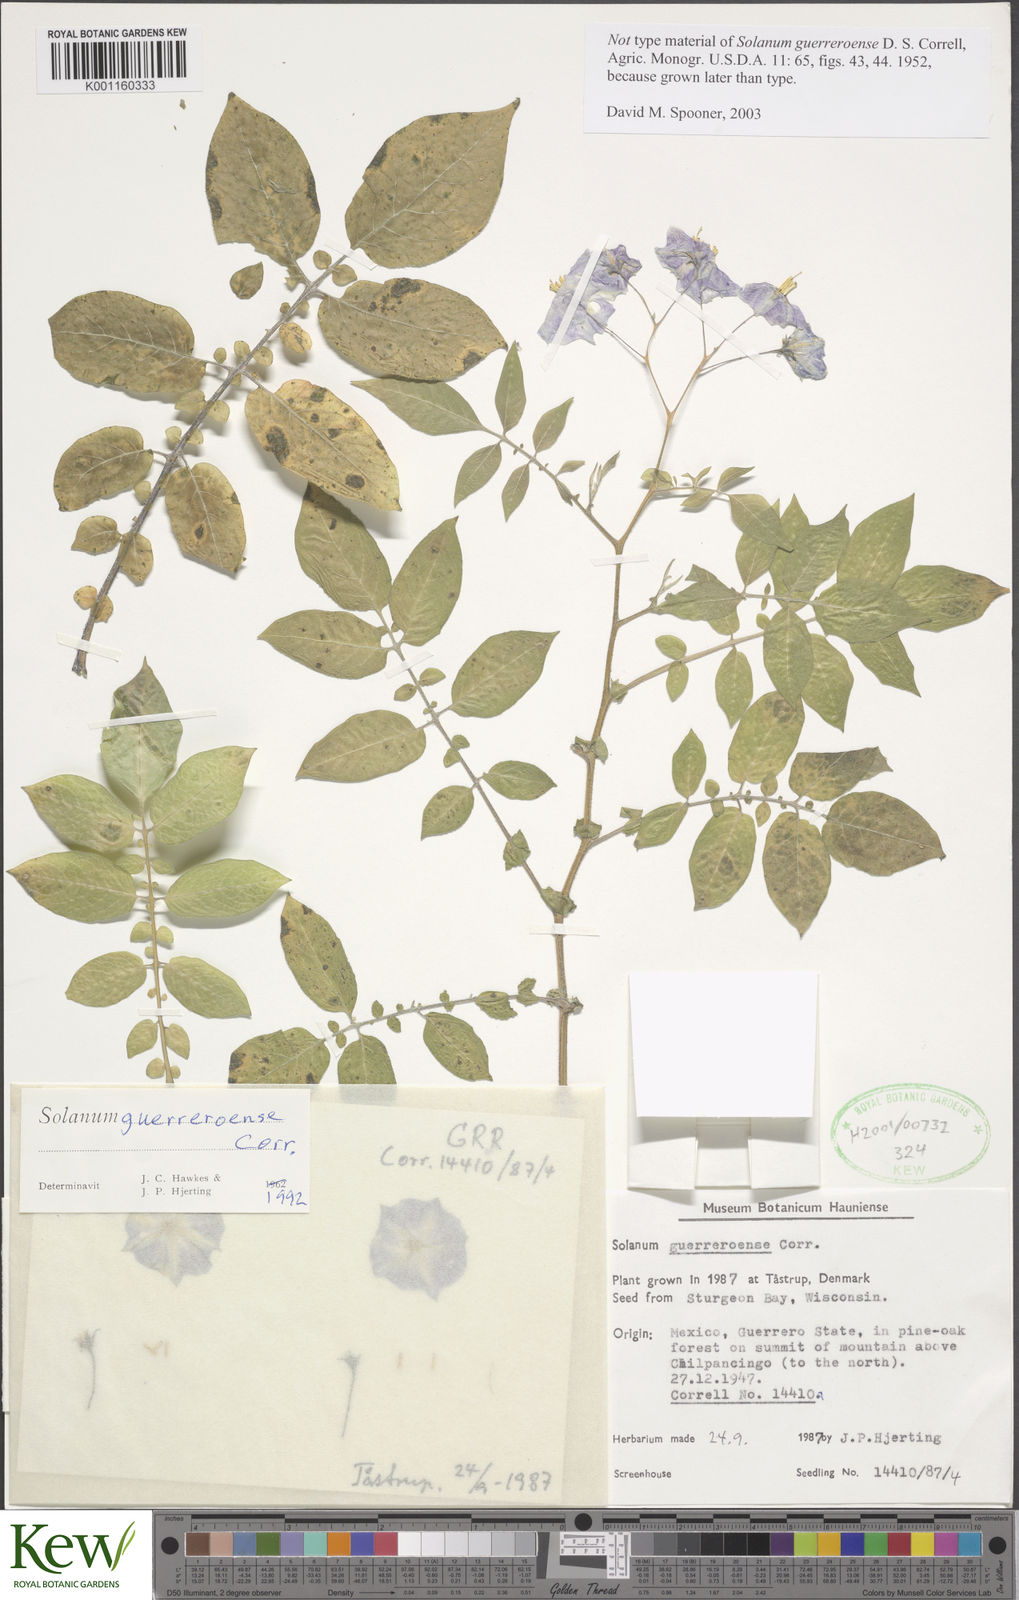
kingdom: Plantae
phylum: Tracheophyta
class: Magnoliopsida
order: Solanales
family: Solanaceae
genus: Solanum
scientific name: Solanum guerreroense
